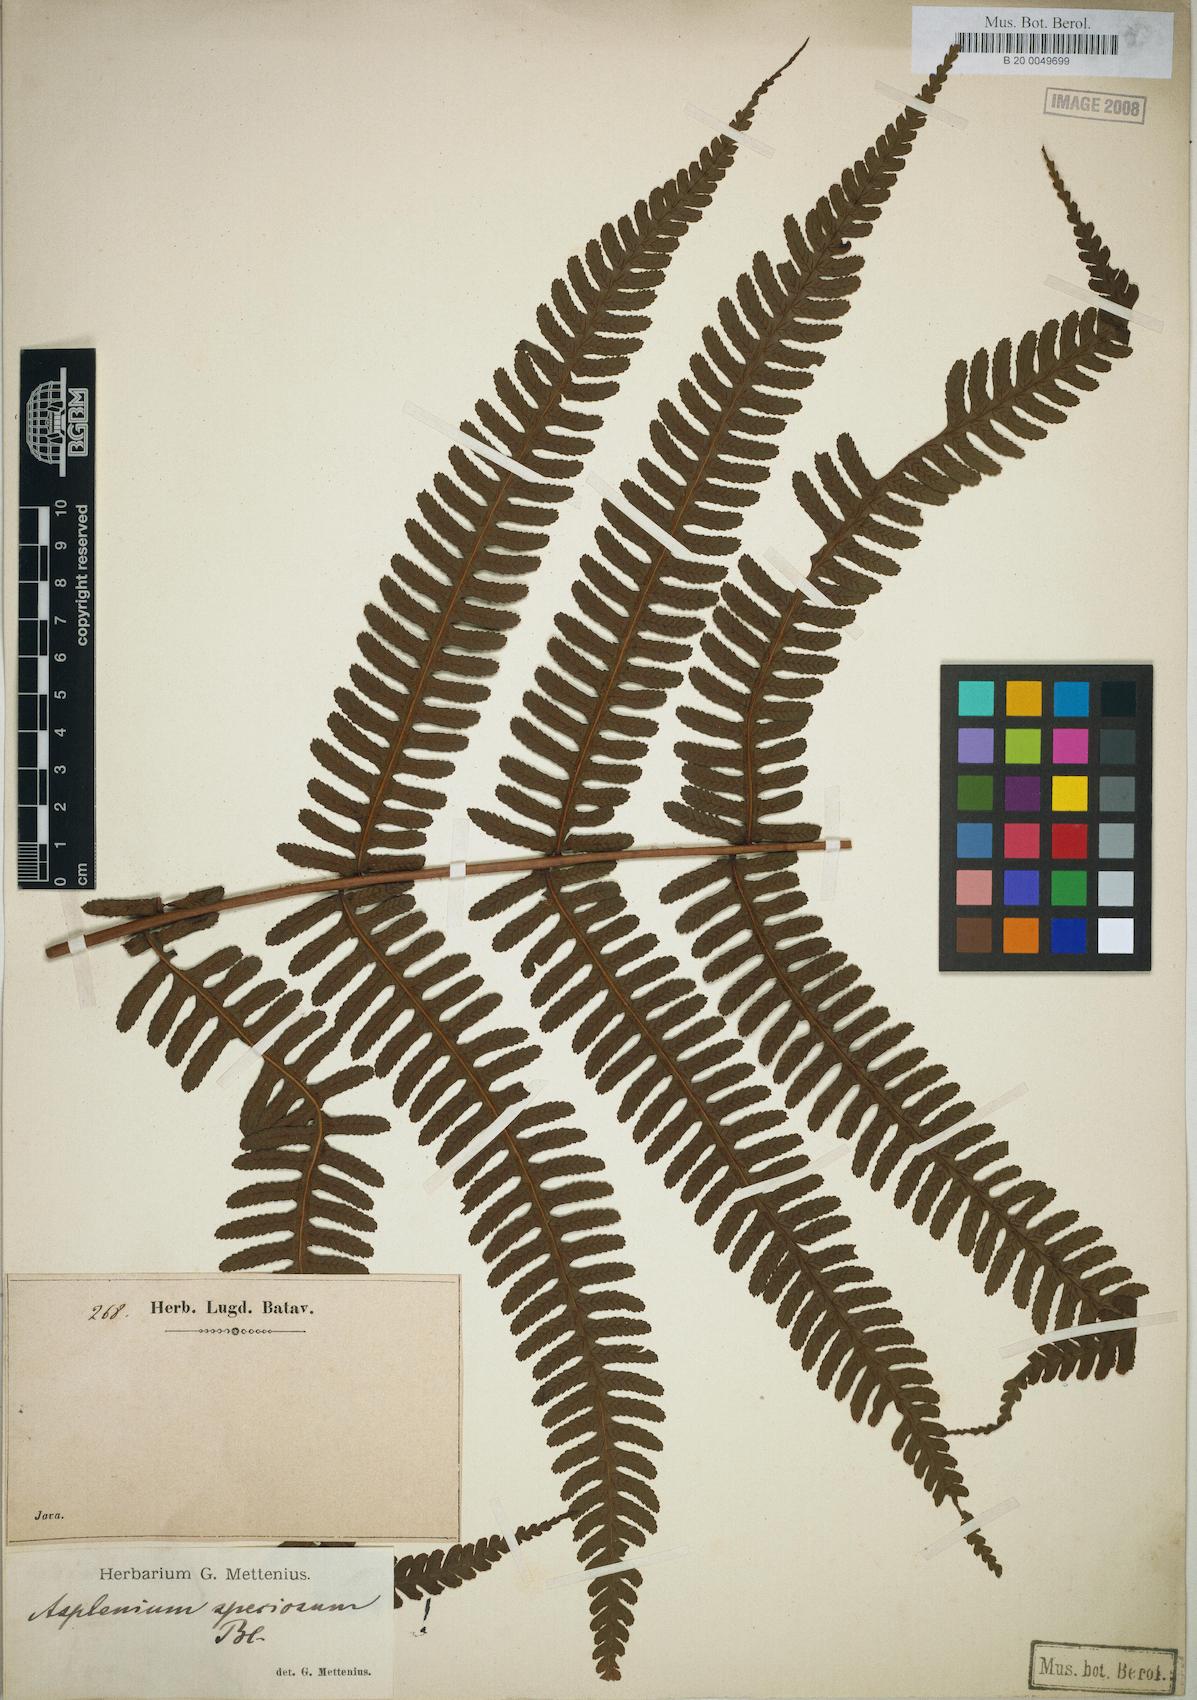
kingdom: Plantae
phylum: Tracheophyta
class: Polypodiopsida
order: Polypodiales
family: Athyriaceae
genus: Diplazium
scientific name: Diplazium speciosum
